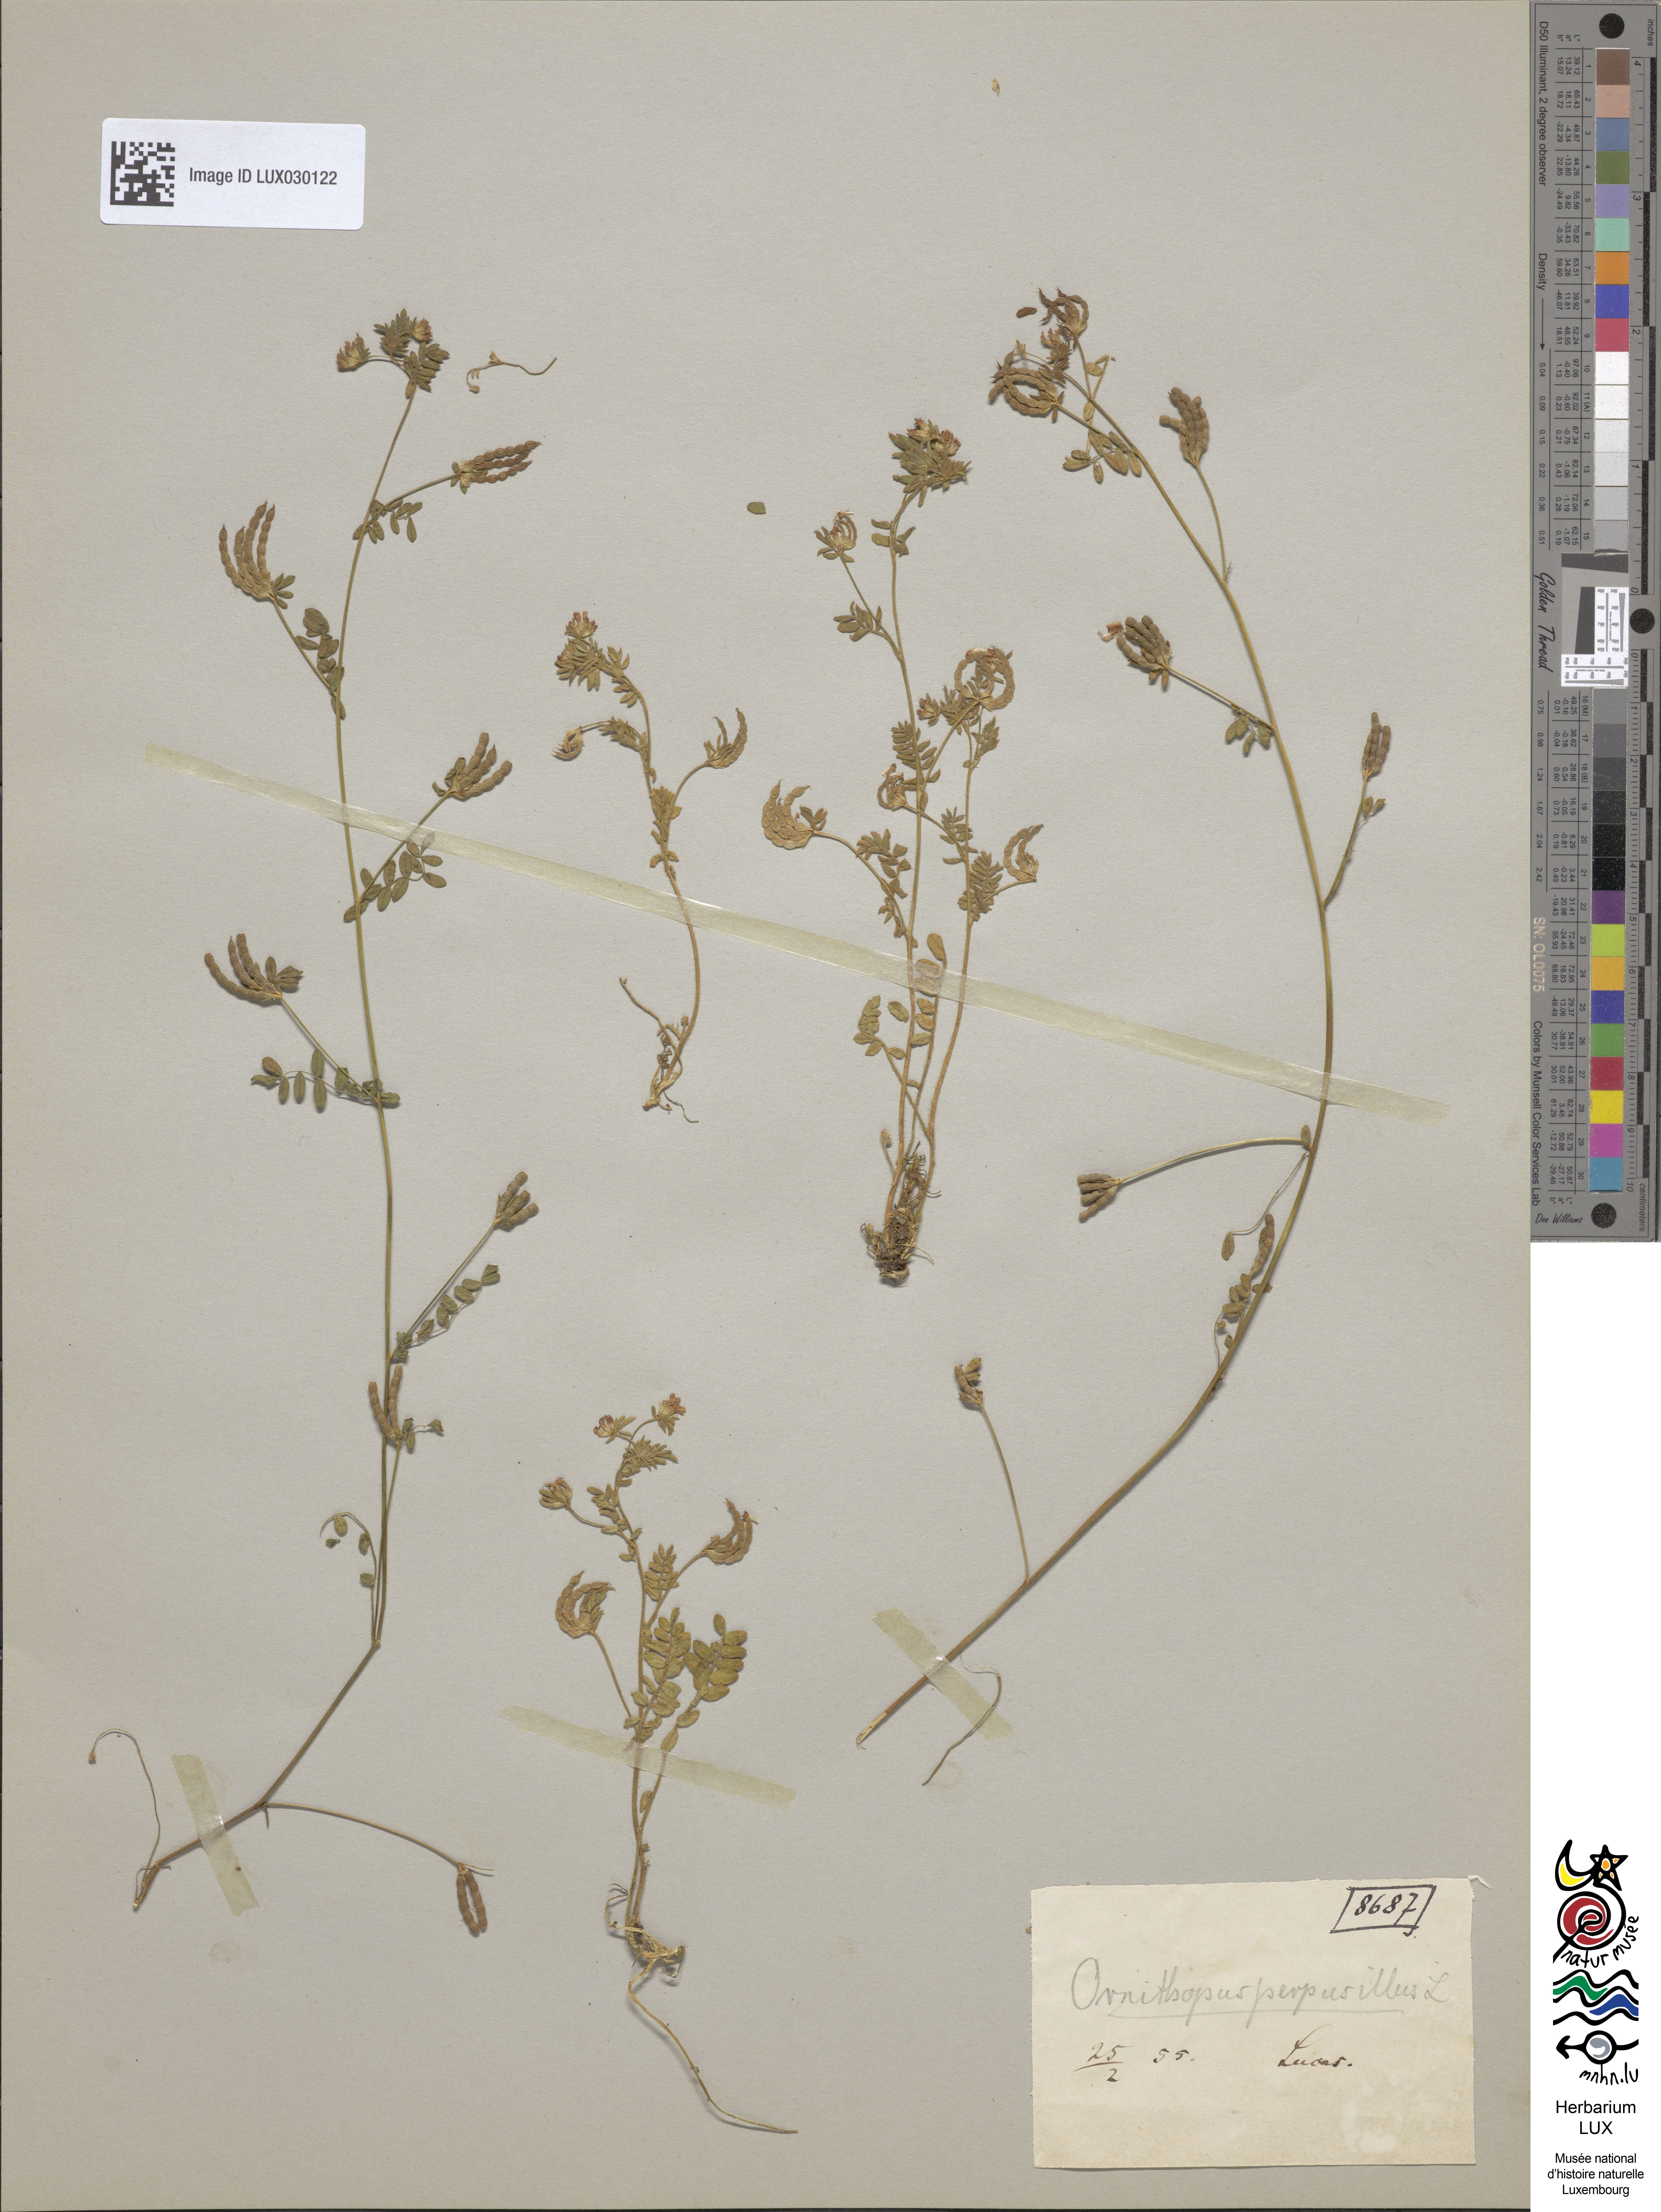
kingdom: Plantae
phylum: Tracheophyta
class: Magnoliopsida
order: Fabales
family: Fabaceae
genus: Ornithopus
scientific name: Ornithopus perpusillus
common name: Bird's-foot
